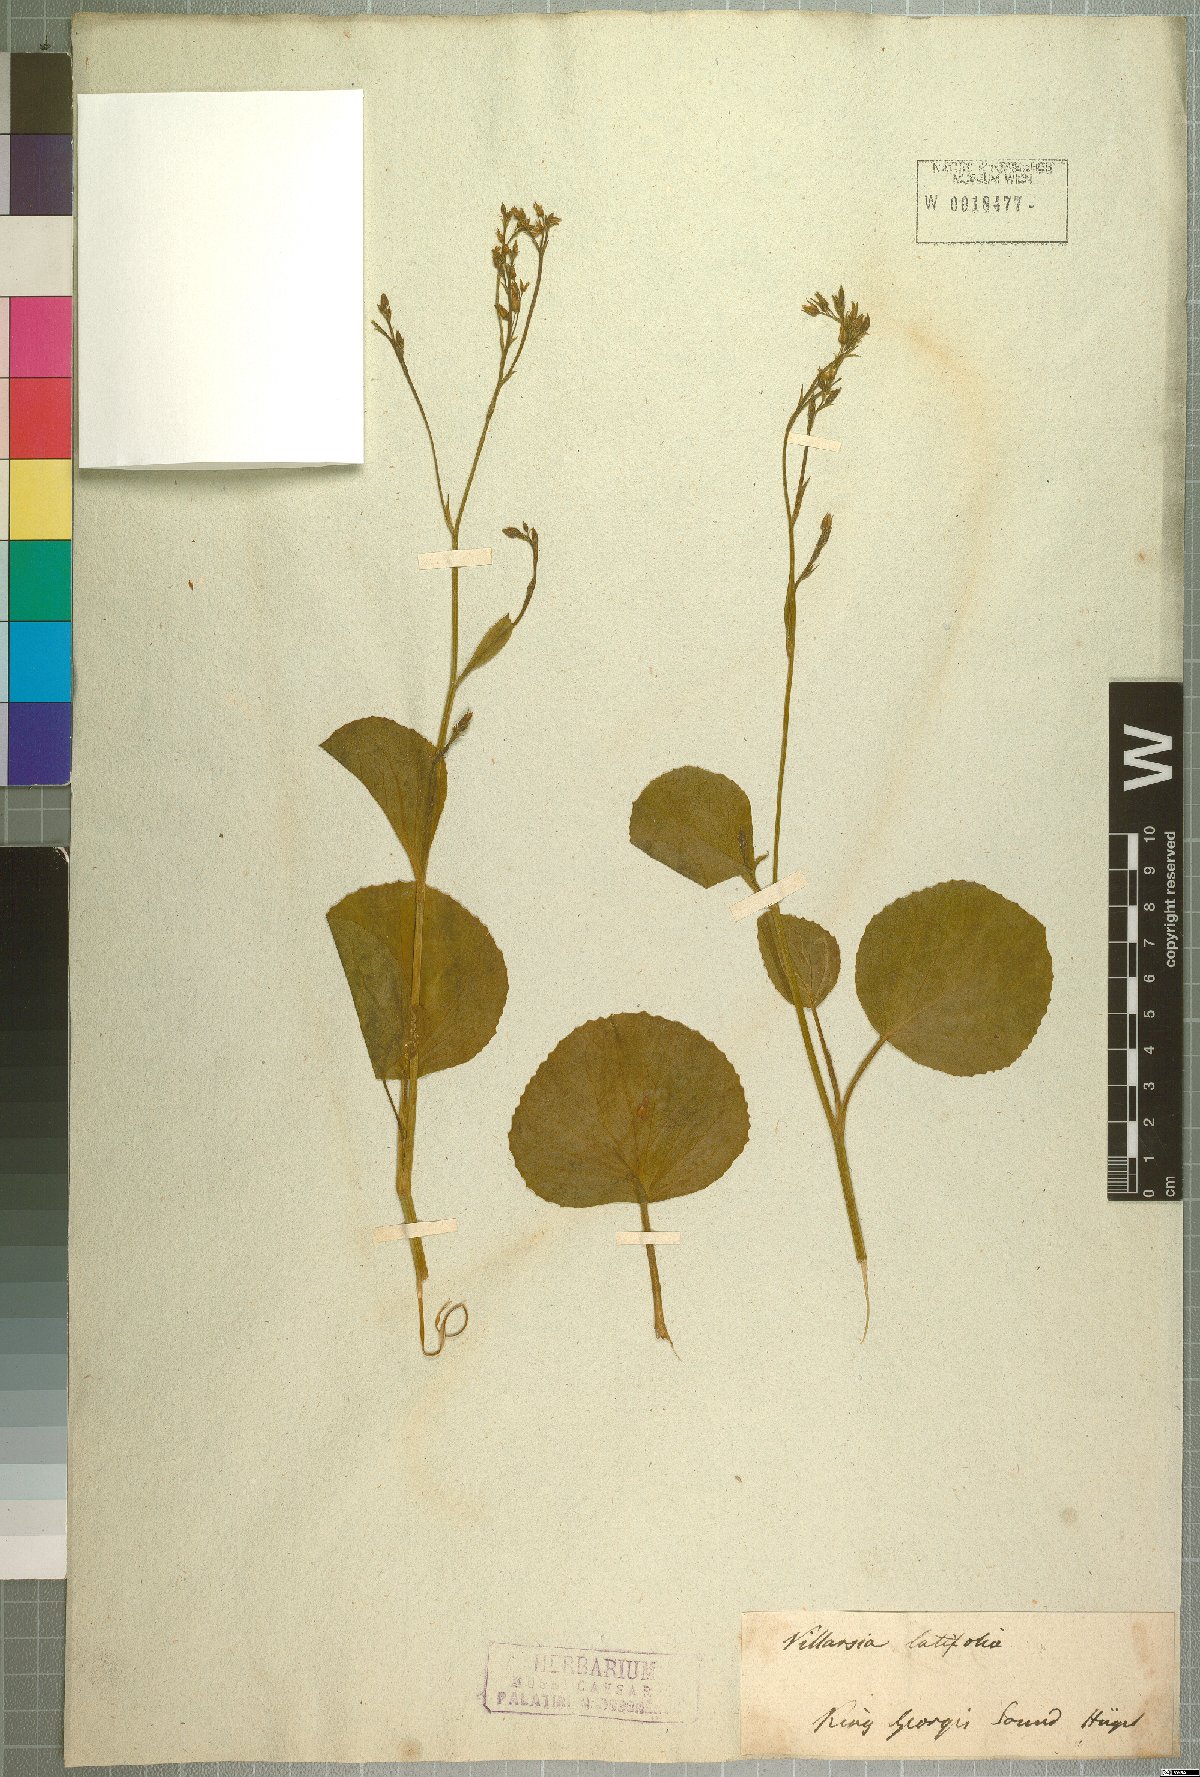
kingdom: Plantae
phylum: Tracheophyta
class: Magnoliopsida
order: Asterales
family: Menyanthaceae
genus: Liparophyllum
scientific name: Liparophyllum latifolium
